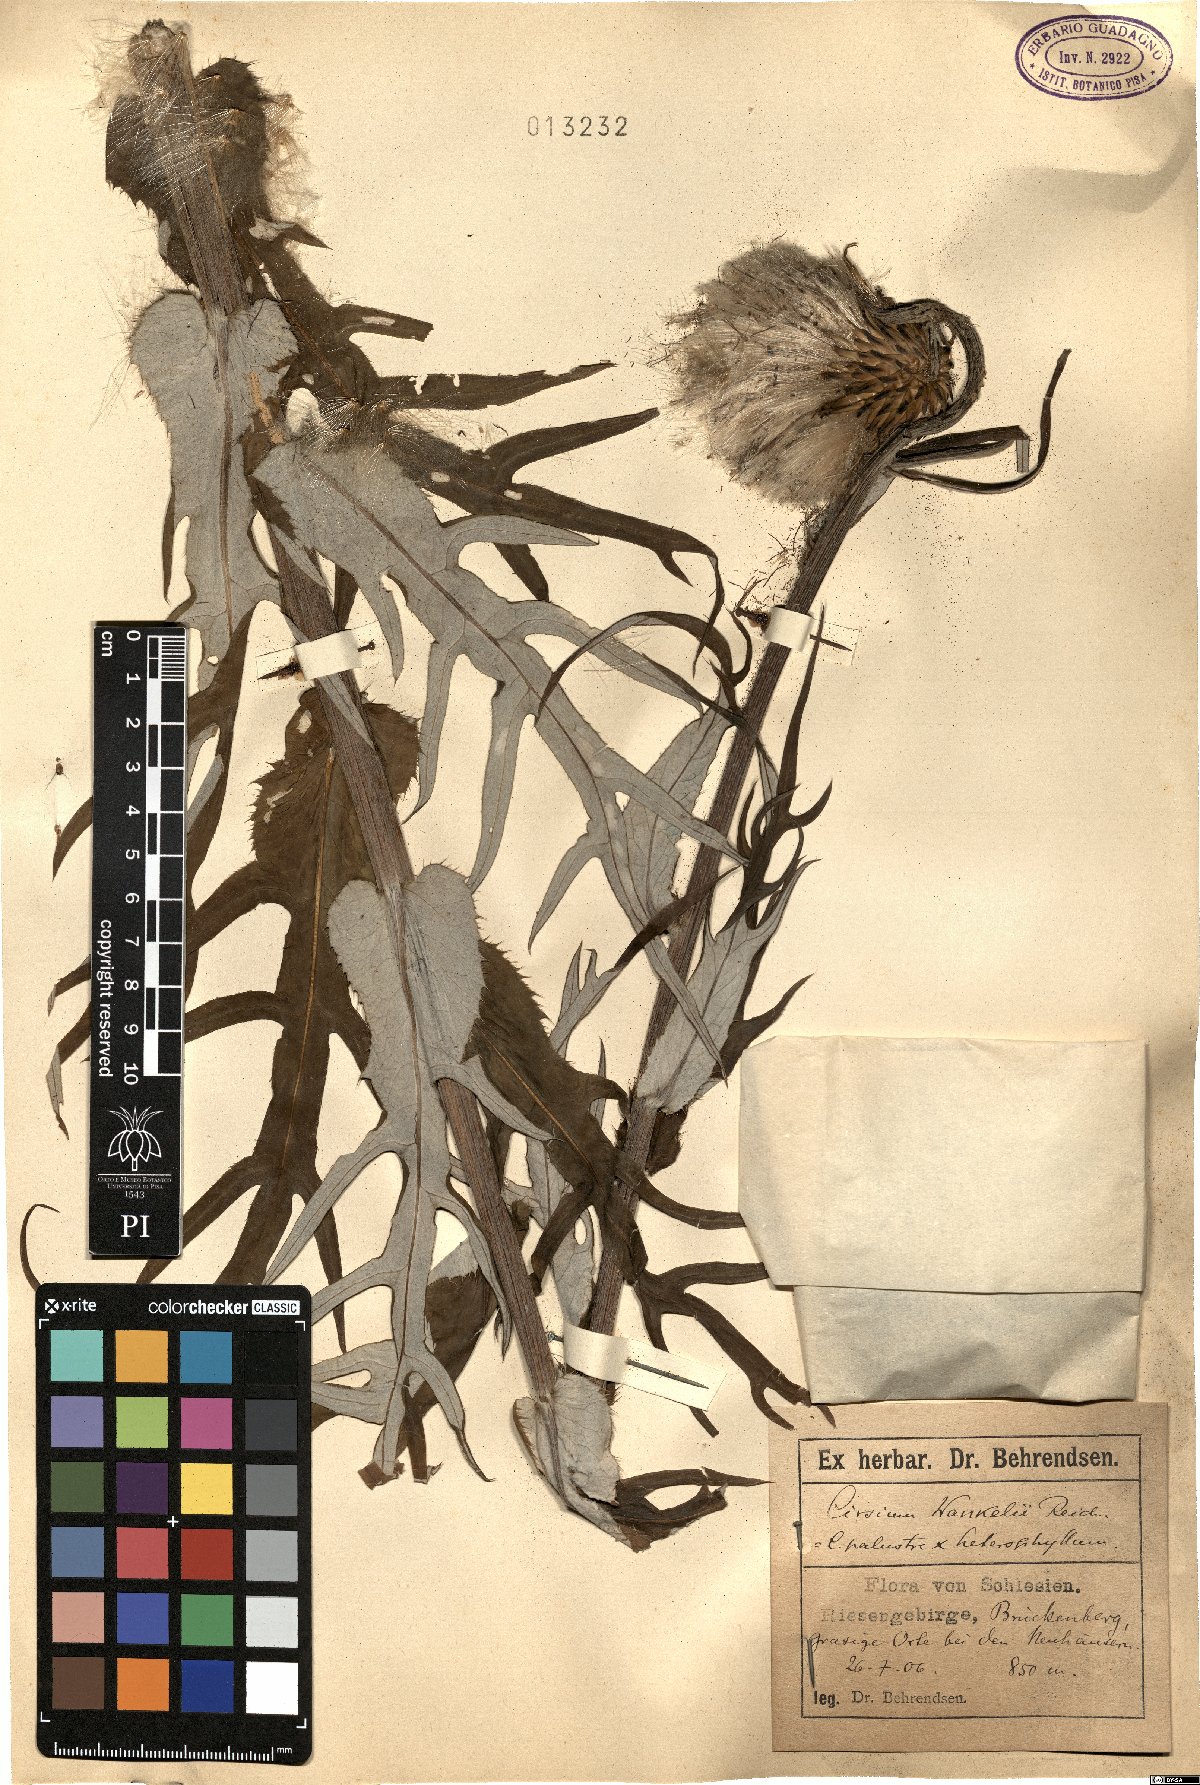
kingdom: Plantae
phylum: Tracheophyta
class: Magnoliopsida
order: Asterales
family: Asteraceae
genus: Cirsium
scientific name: Cirsium wankelii
